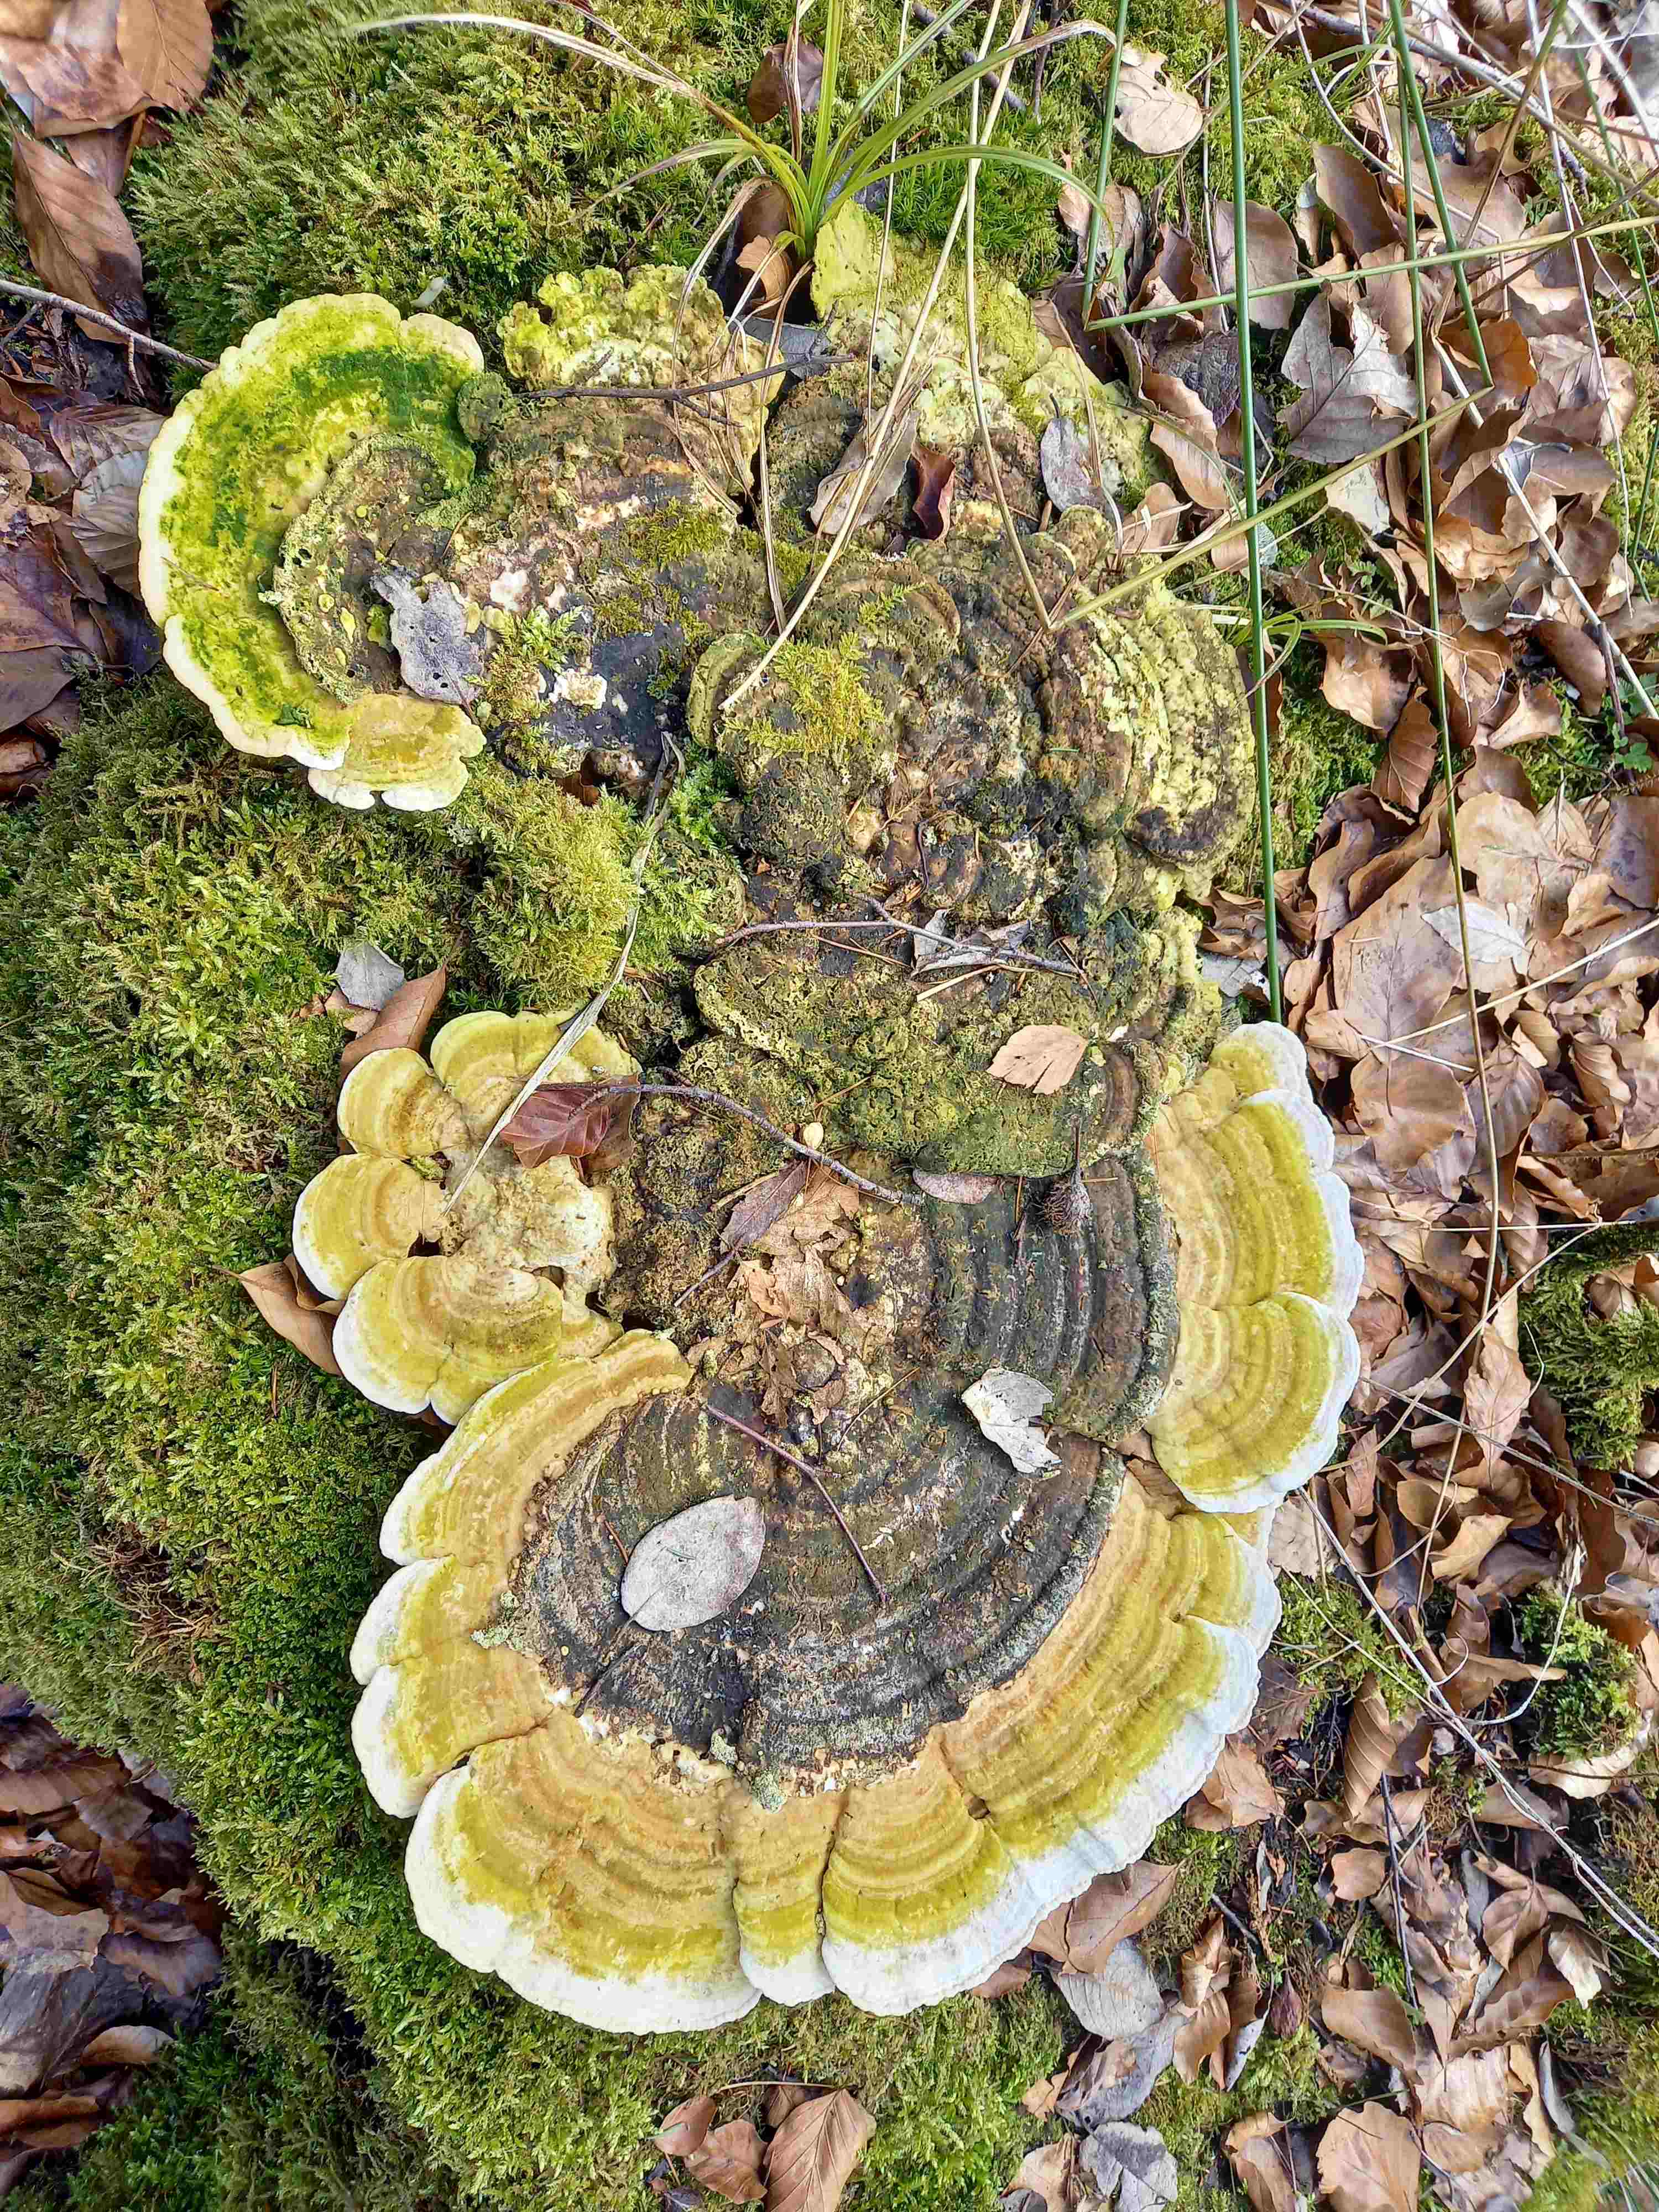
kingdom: Fungi
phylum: Basidiomycota
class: Agaricomycetes
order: Polyporales
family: Polyporaceae
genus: Trametes
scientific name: Trametes gibbosa
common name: puklet læderporesvamp
